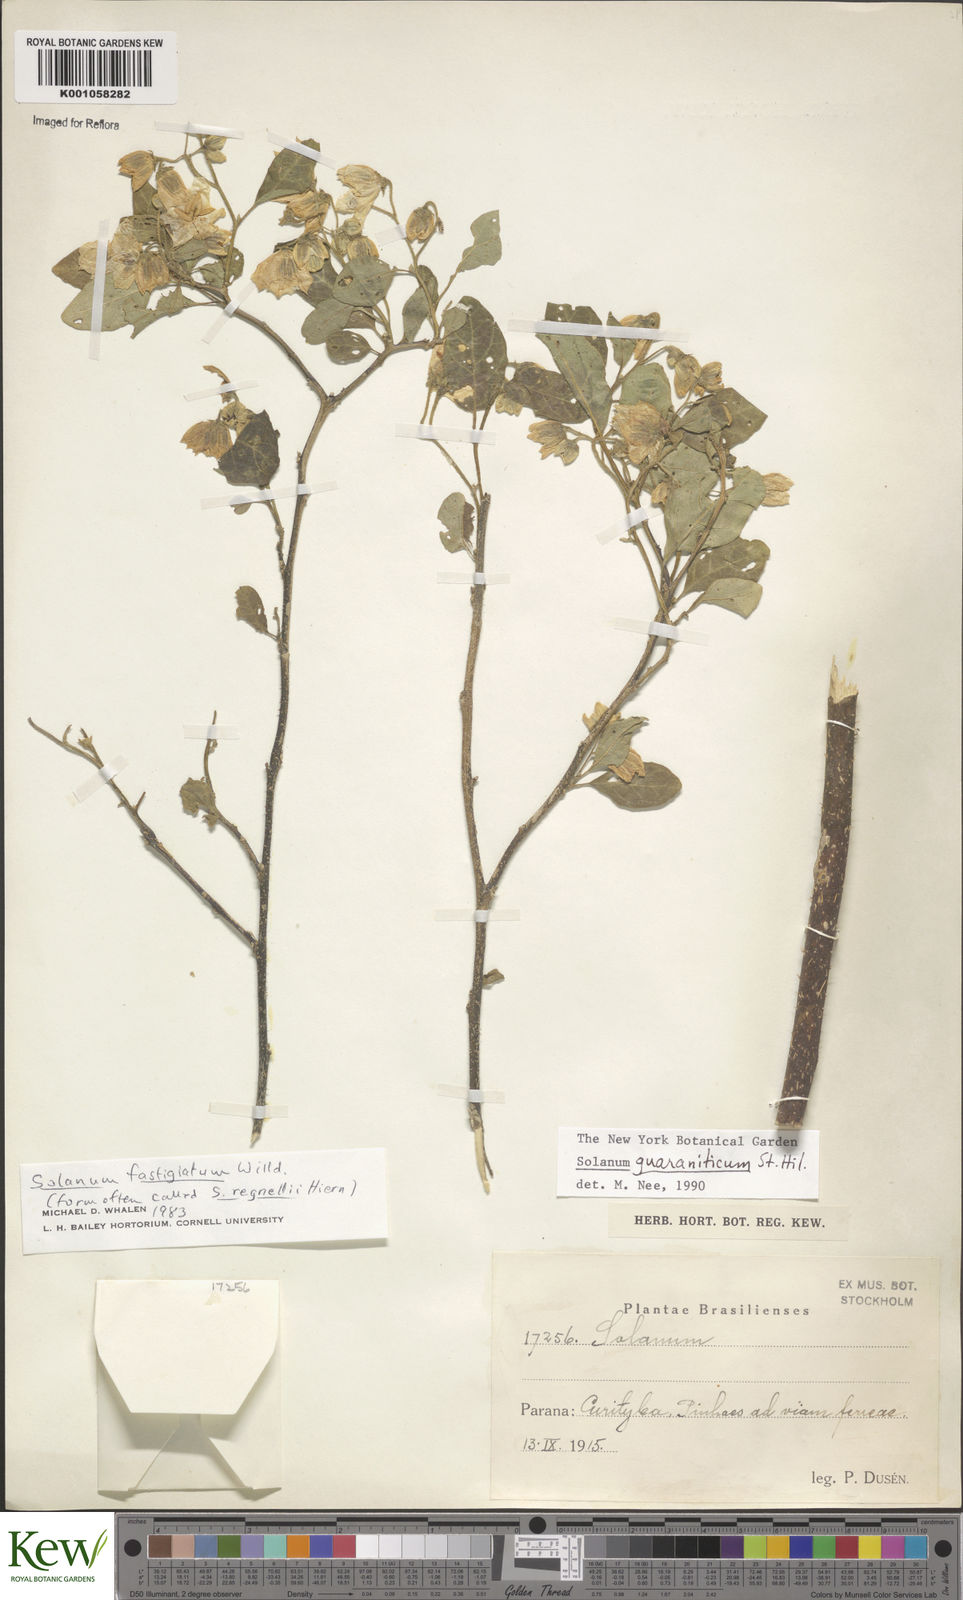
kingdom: Plantae
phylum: Tracheophyta
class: Magnoliopsida
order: Solanales
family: Solanaceae
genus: Solanum
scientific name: Solanum guaraniticum
